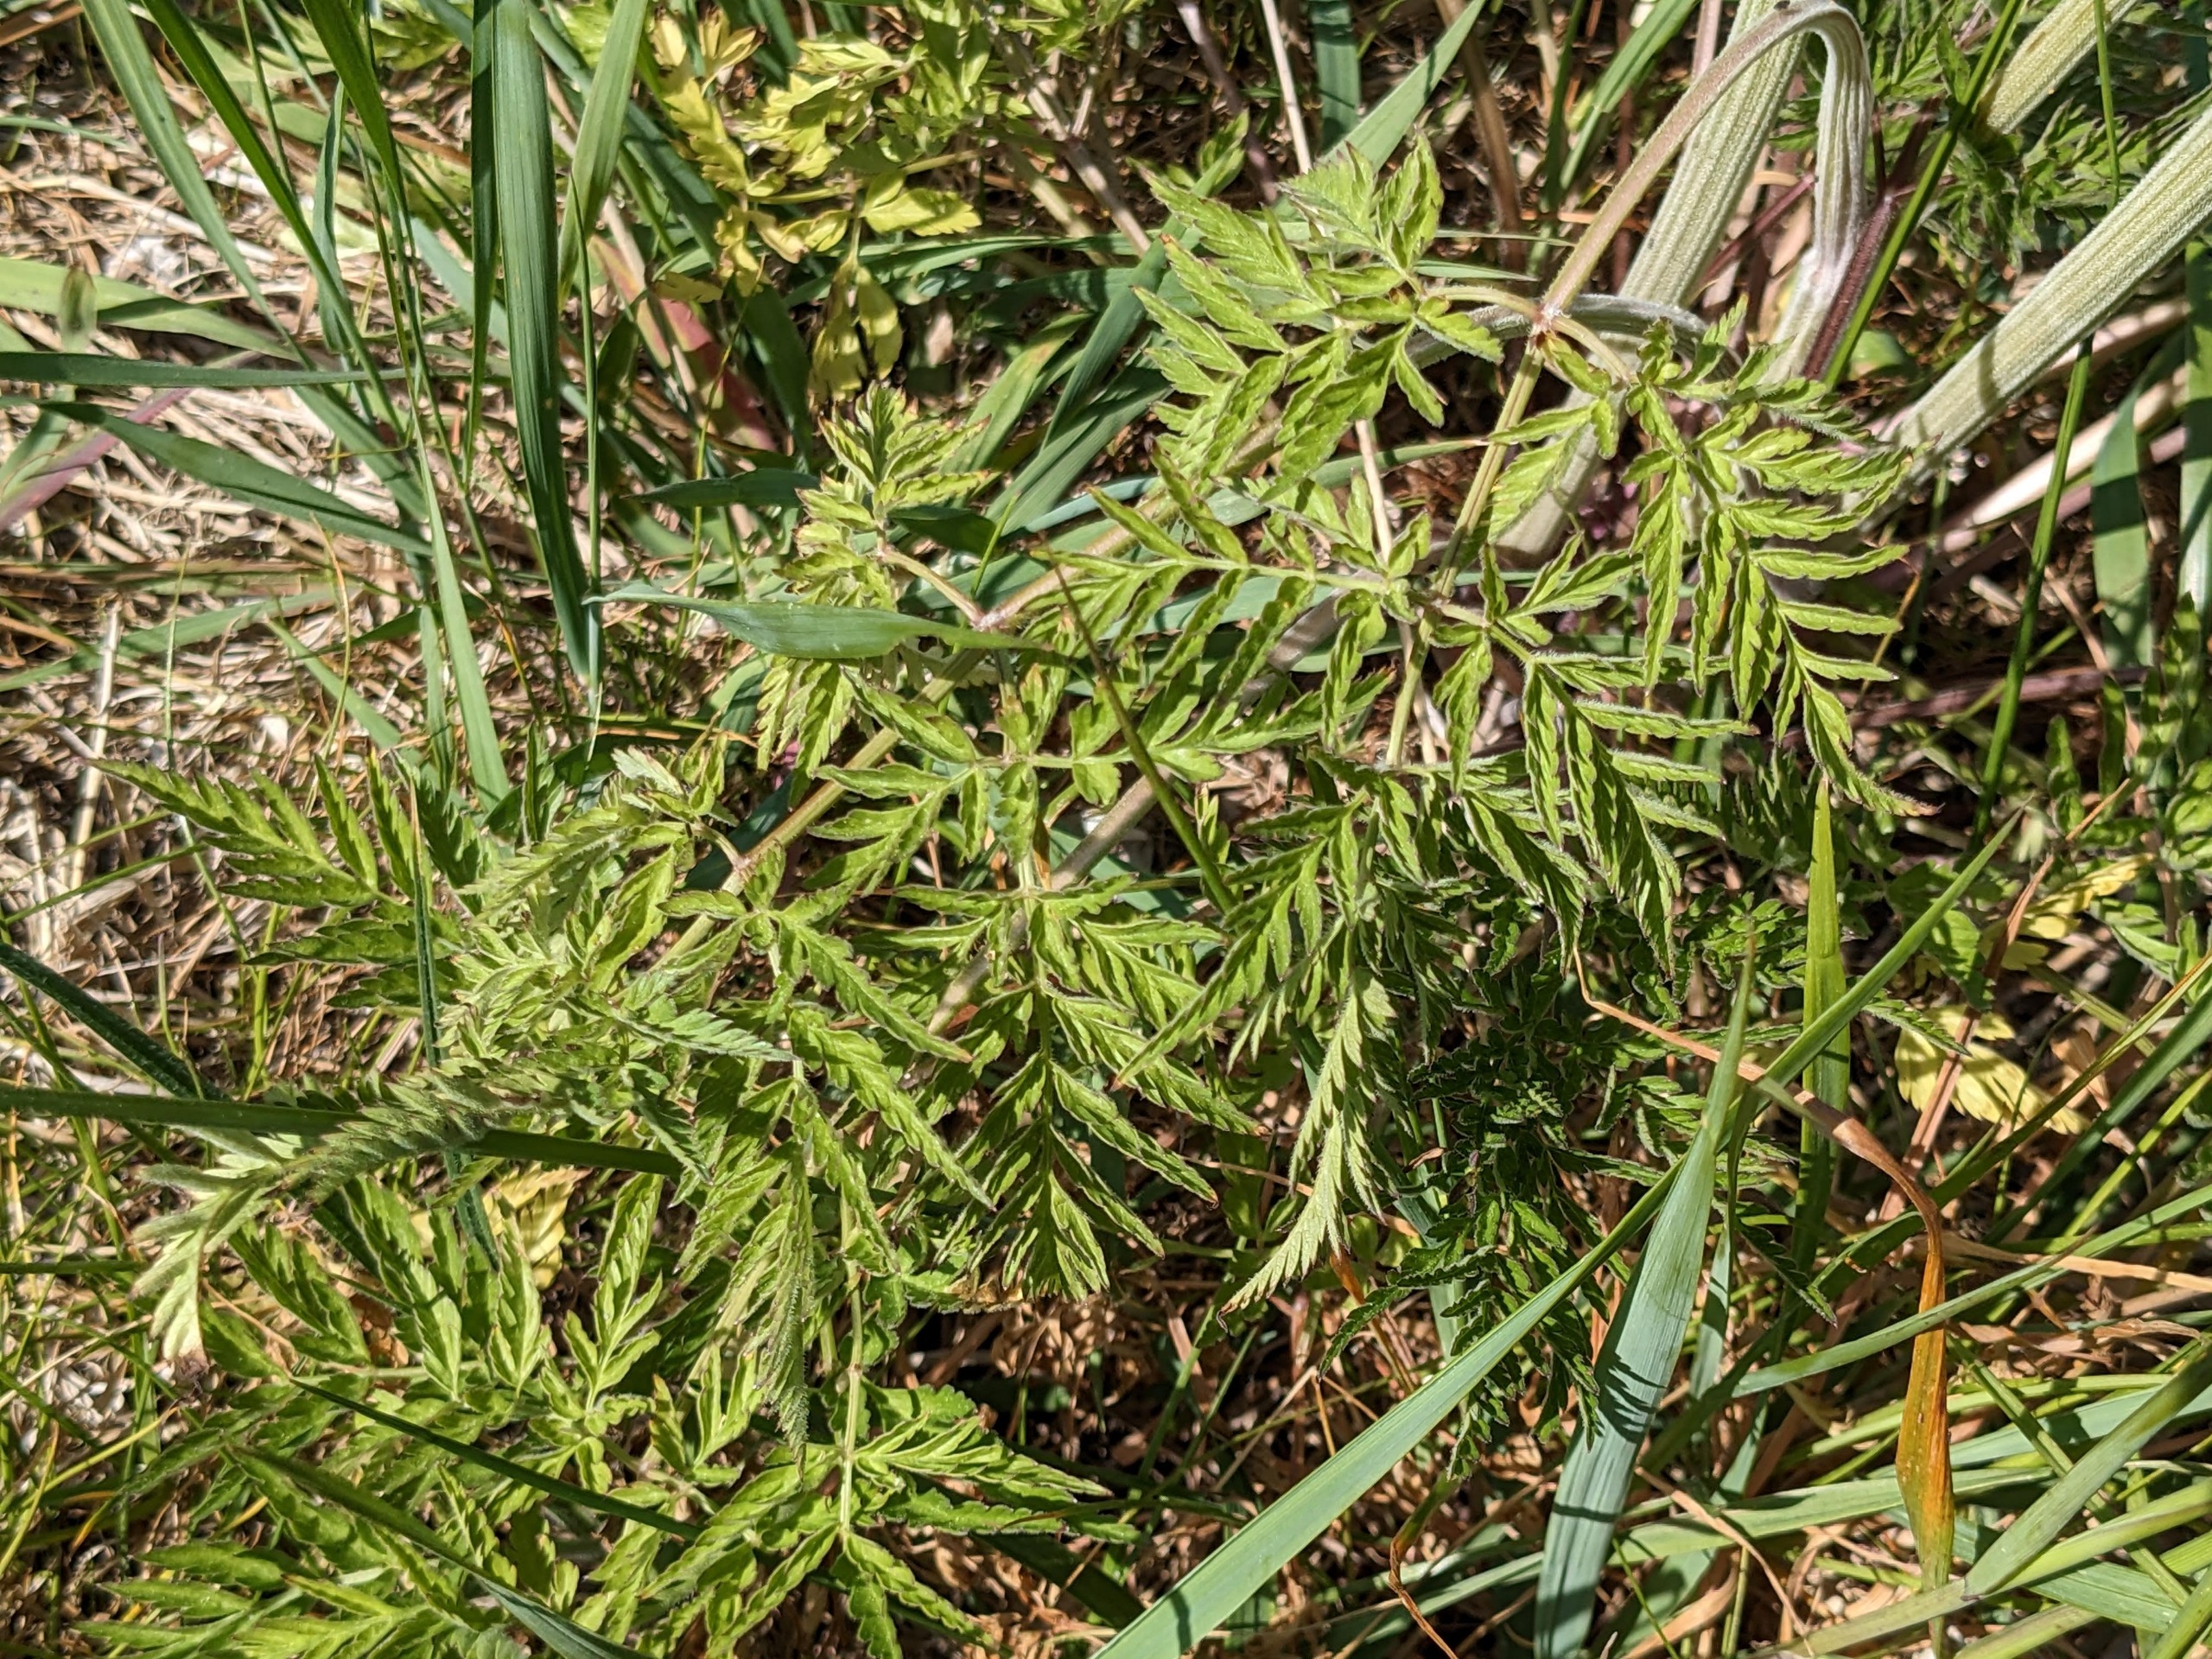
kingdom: Plantae
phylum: Tracheophyta
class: Magnoliopsida
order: Apiales
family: Apiaceae
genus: Anthriscus
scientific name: Anthriscus sylvestris
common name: Vild kørvel
